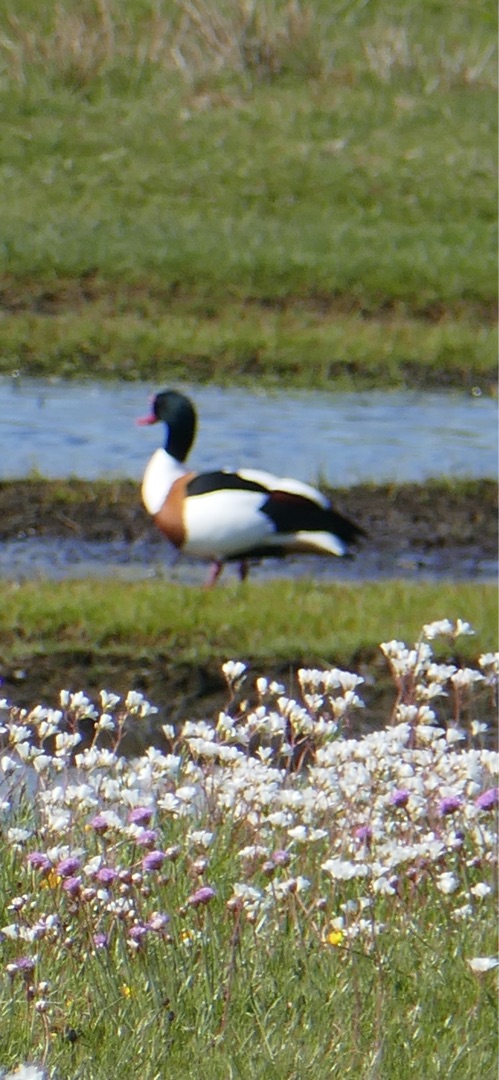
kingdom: Animalia
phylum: Chordata
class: Aves
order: Anseriformes
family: Anatidae
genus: Tadorna
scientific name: Tadorna tadorna
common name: Gravand
